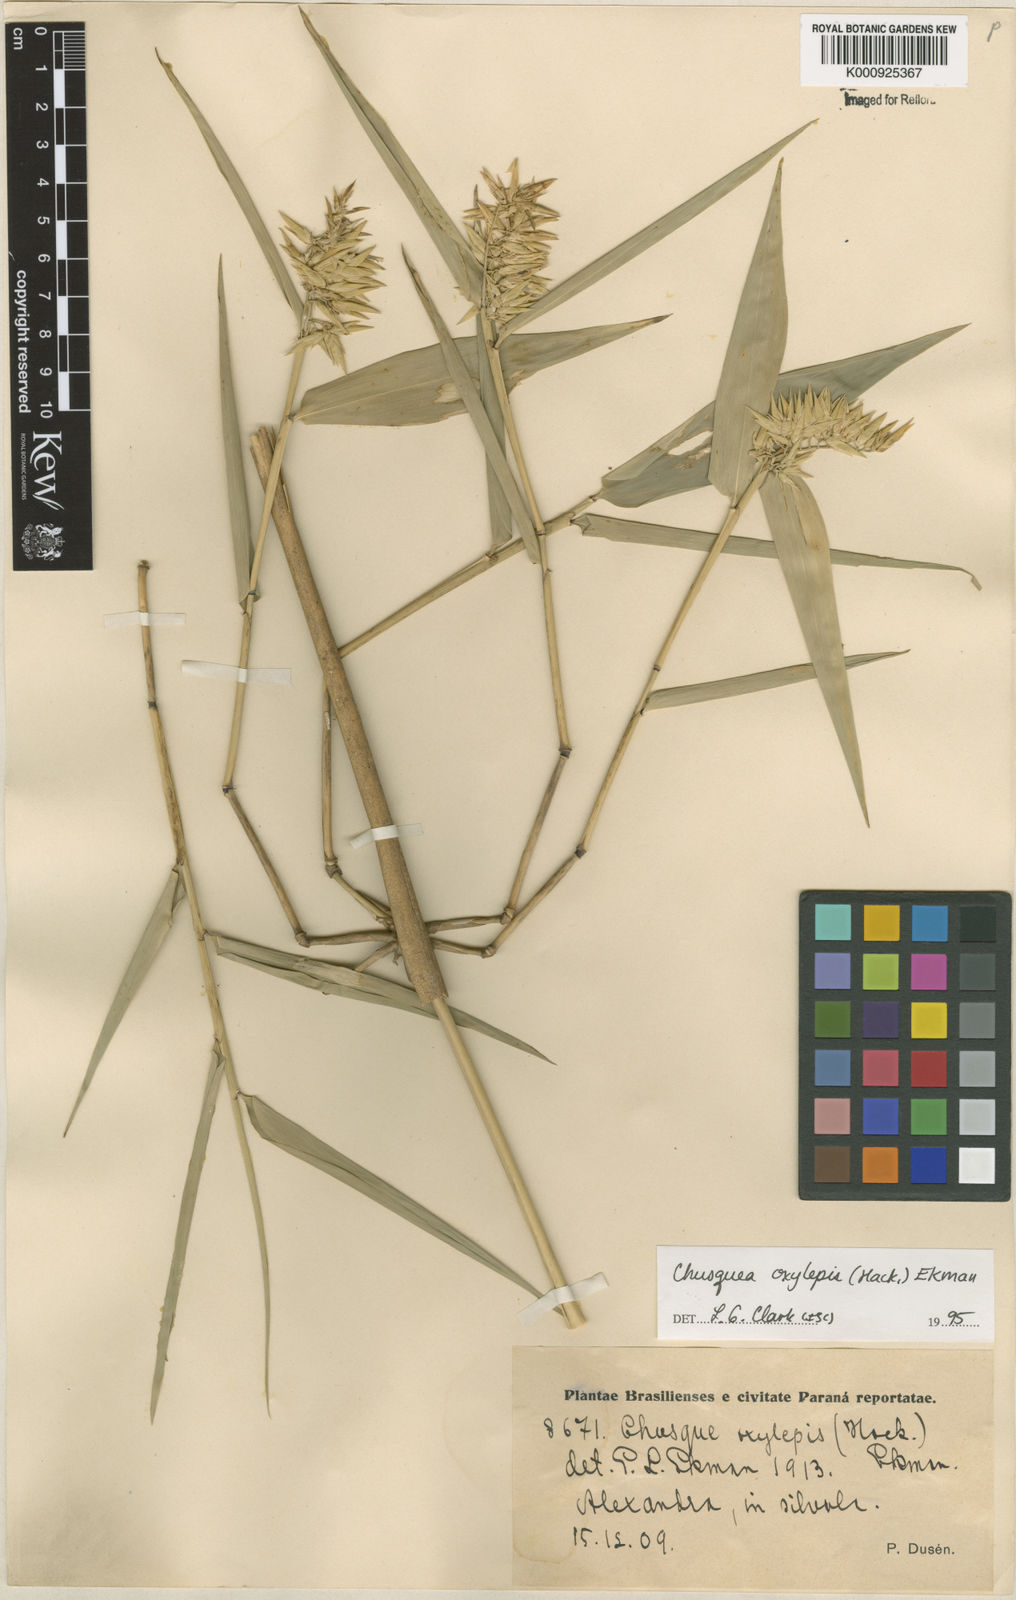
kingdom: Plantae
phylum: Tracheophyta
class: Liliopsida
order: Poales
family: Poaceae
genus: Chusquea
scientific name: Chusquea oxylepis
